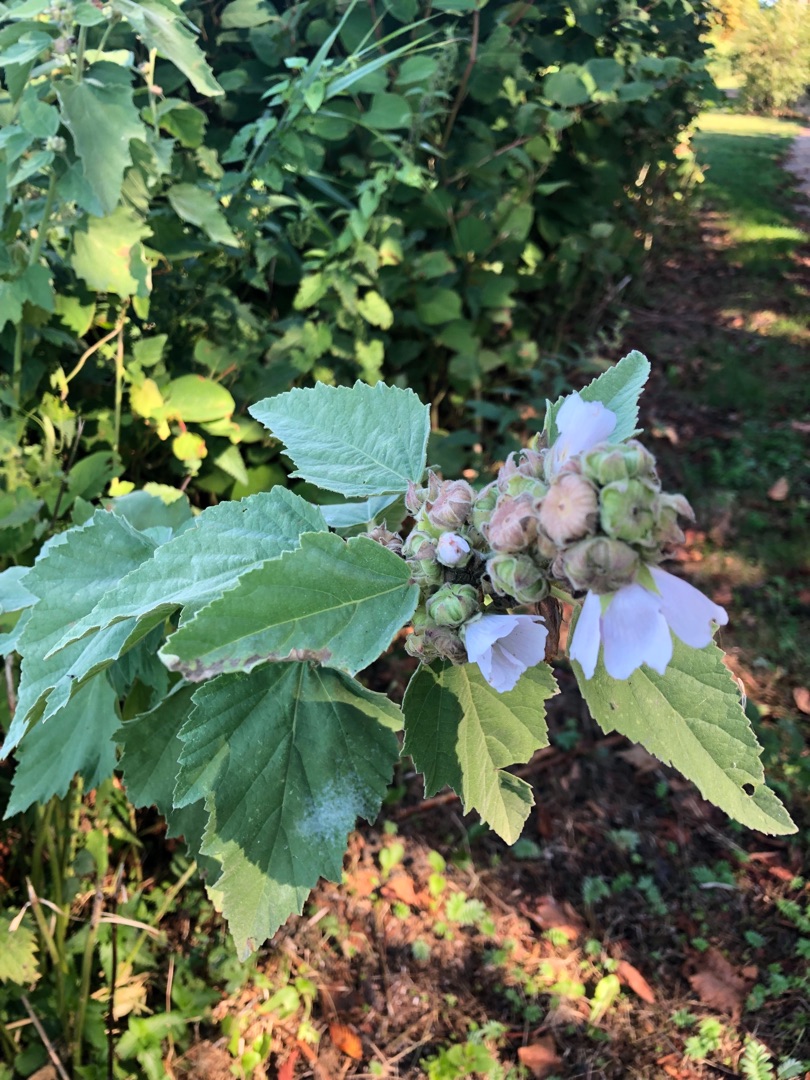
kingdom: Plantae
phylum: Tracheophyta
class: Magnoliopsida
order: Malvales
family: Malvaceae
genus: Althaea
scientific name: Althaea officinalis
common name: Lægestokrose
